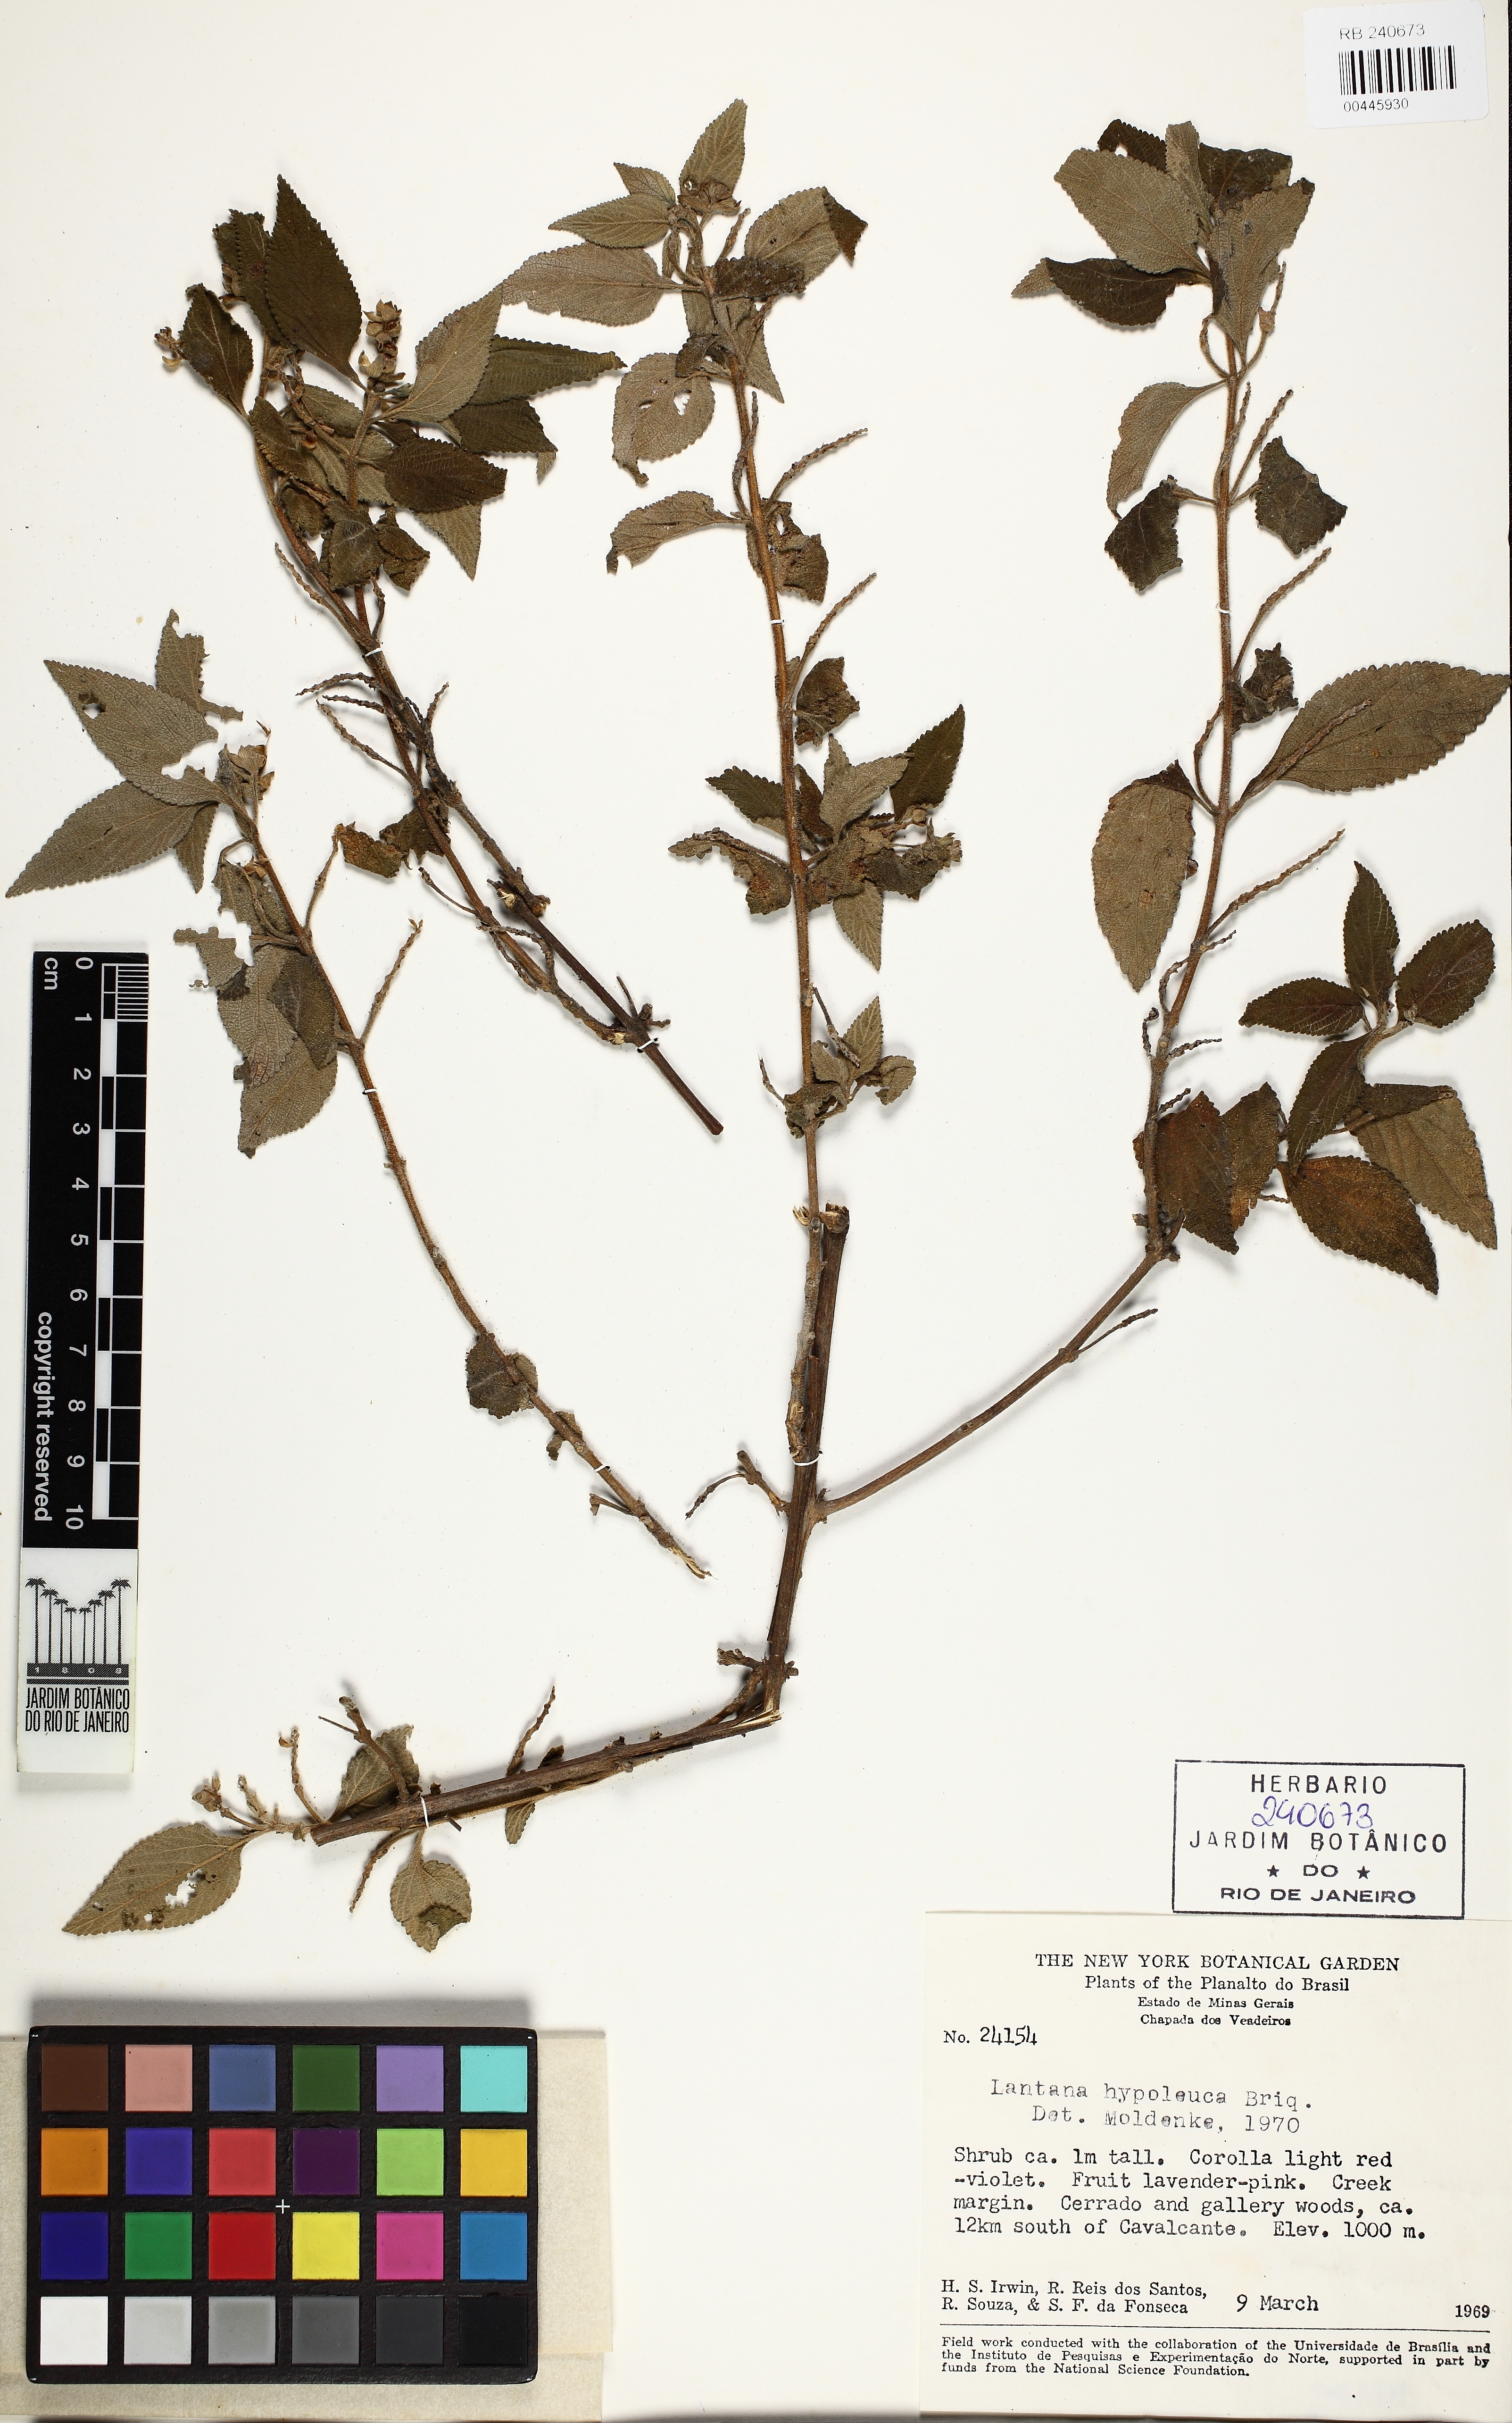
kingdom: Plantae
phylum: Tracheophyta
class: Magnoliopsida
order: Lamiales
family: Verbenaceae
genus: Lantana
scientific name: Lantana hypoleuca
